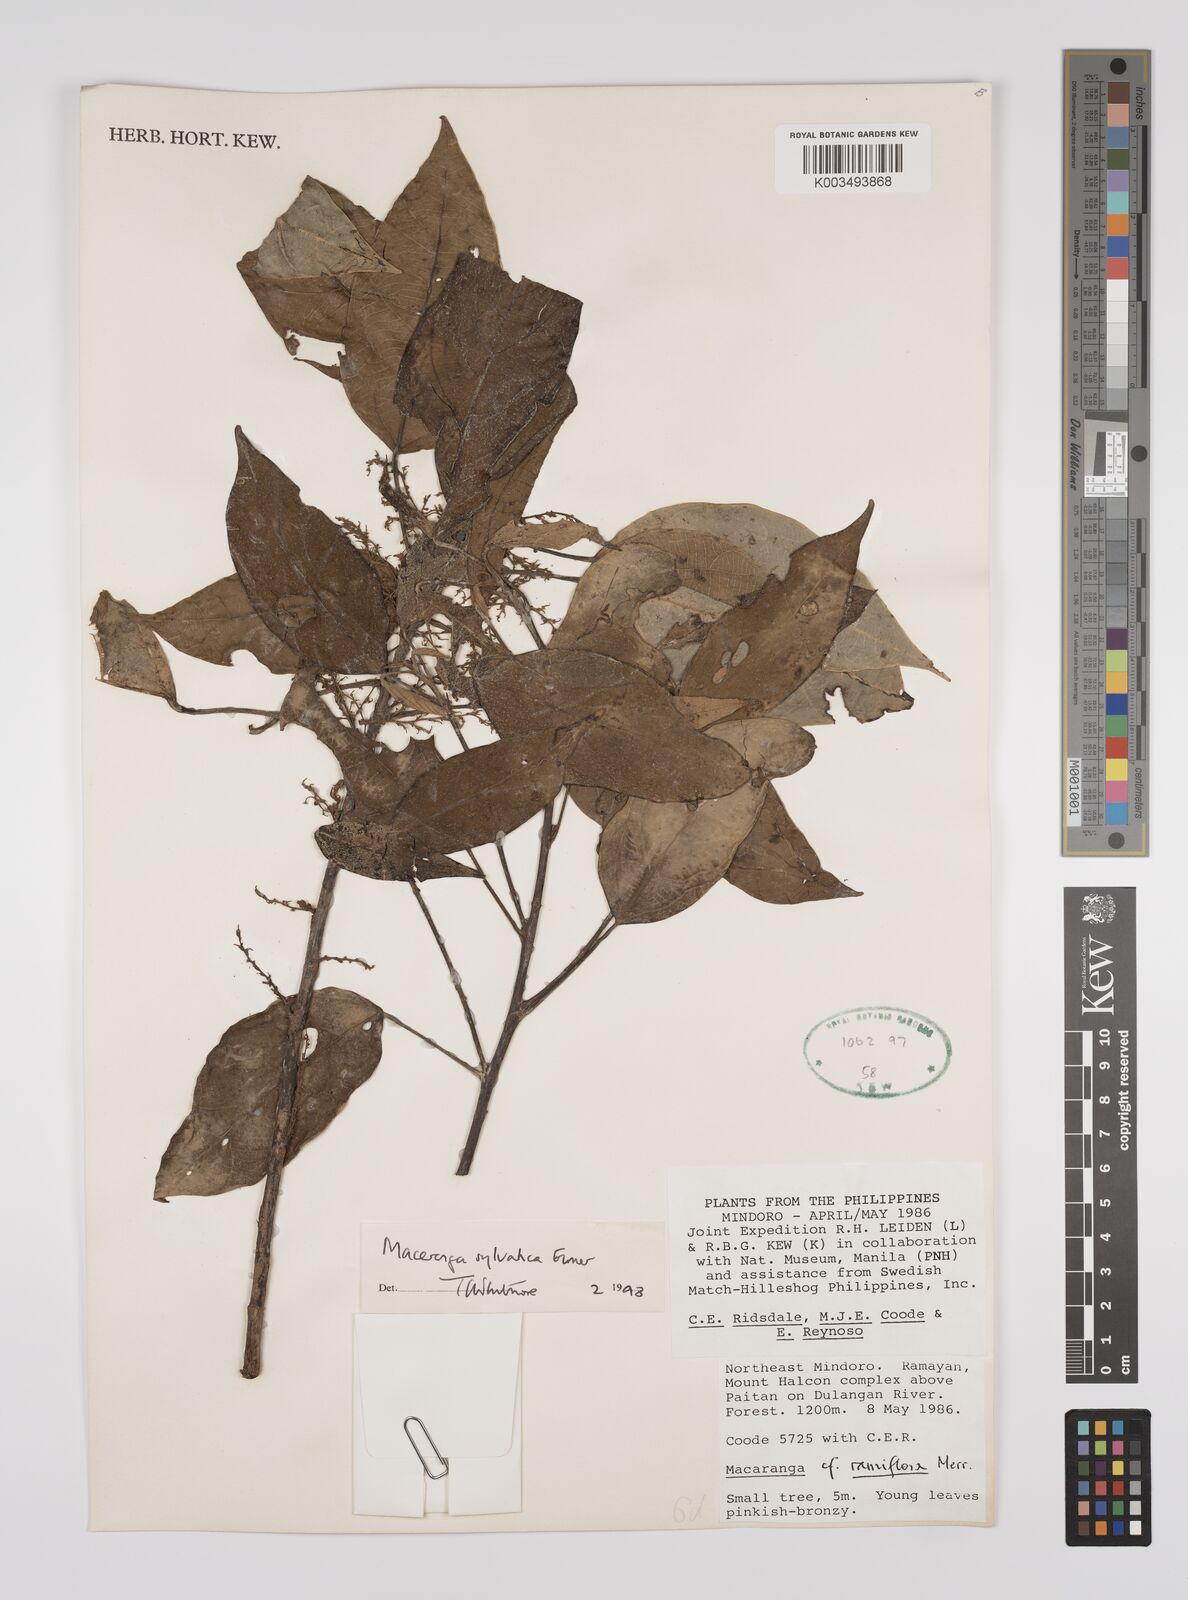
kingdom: Plantae
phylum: Tracheophyta
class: Magnoliopsida
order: Malpighiales
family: Euphorbiaceae
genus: Macaranga
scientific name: Macaranga sylvatica
